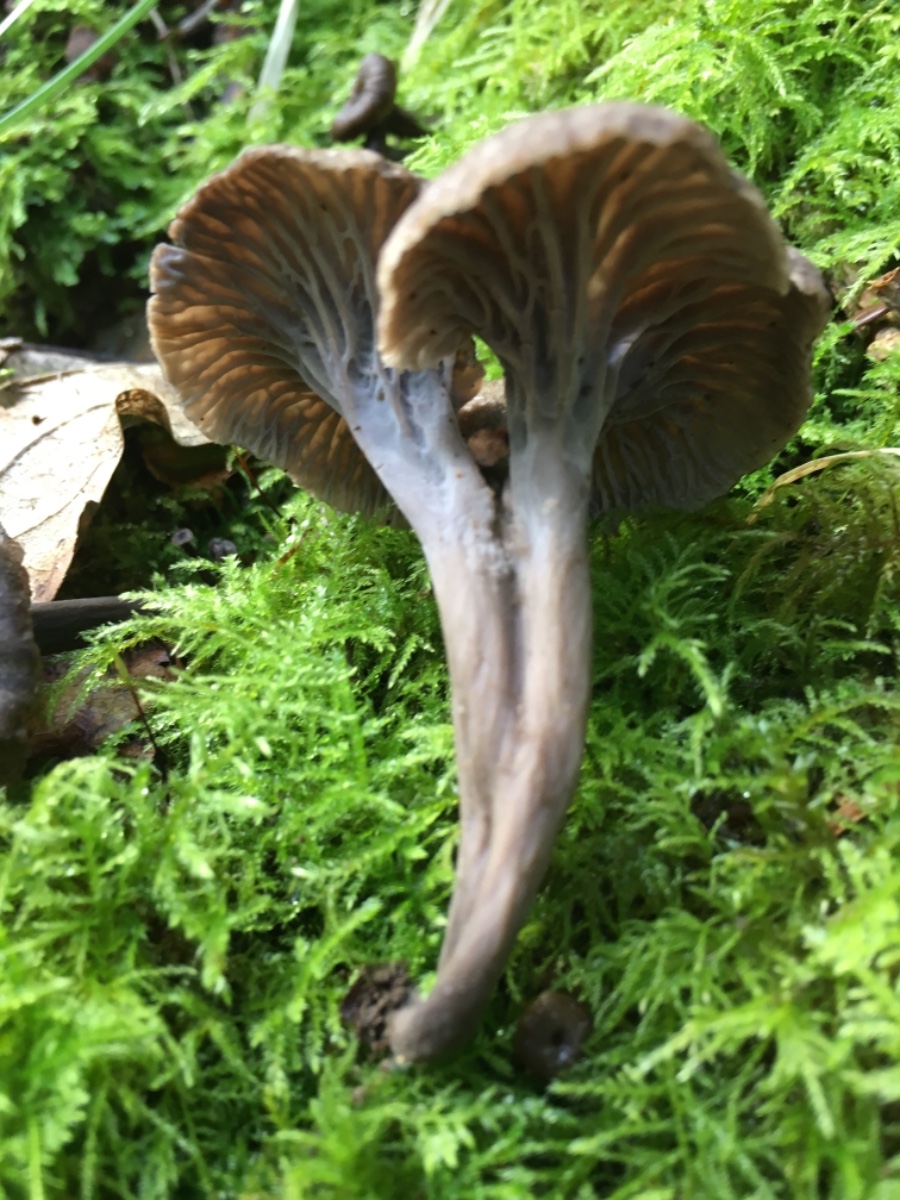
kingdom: Fungi
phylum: Basidiomycota
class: Agaricomycetes
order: Cantharellales
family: Hydnaceae
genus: Cantharellus
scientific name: Cantharellus cinereus
